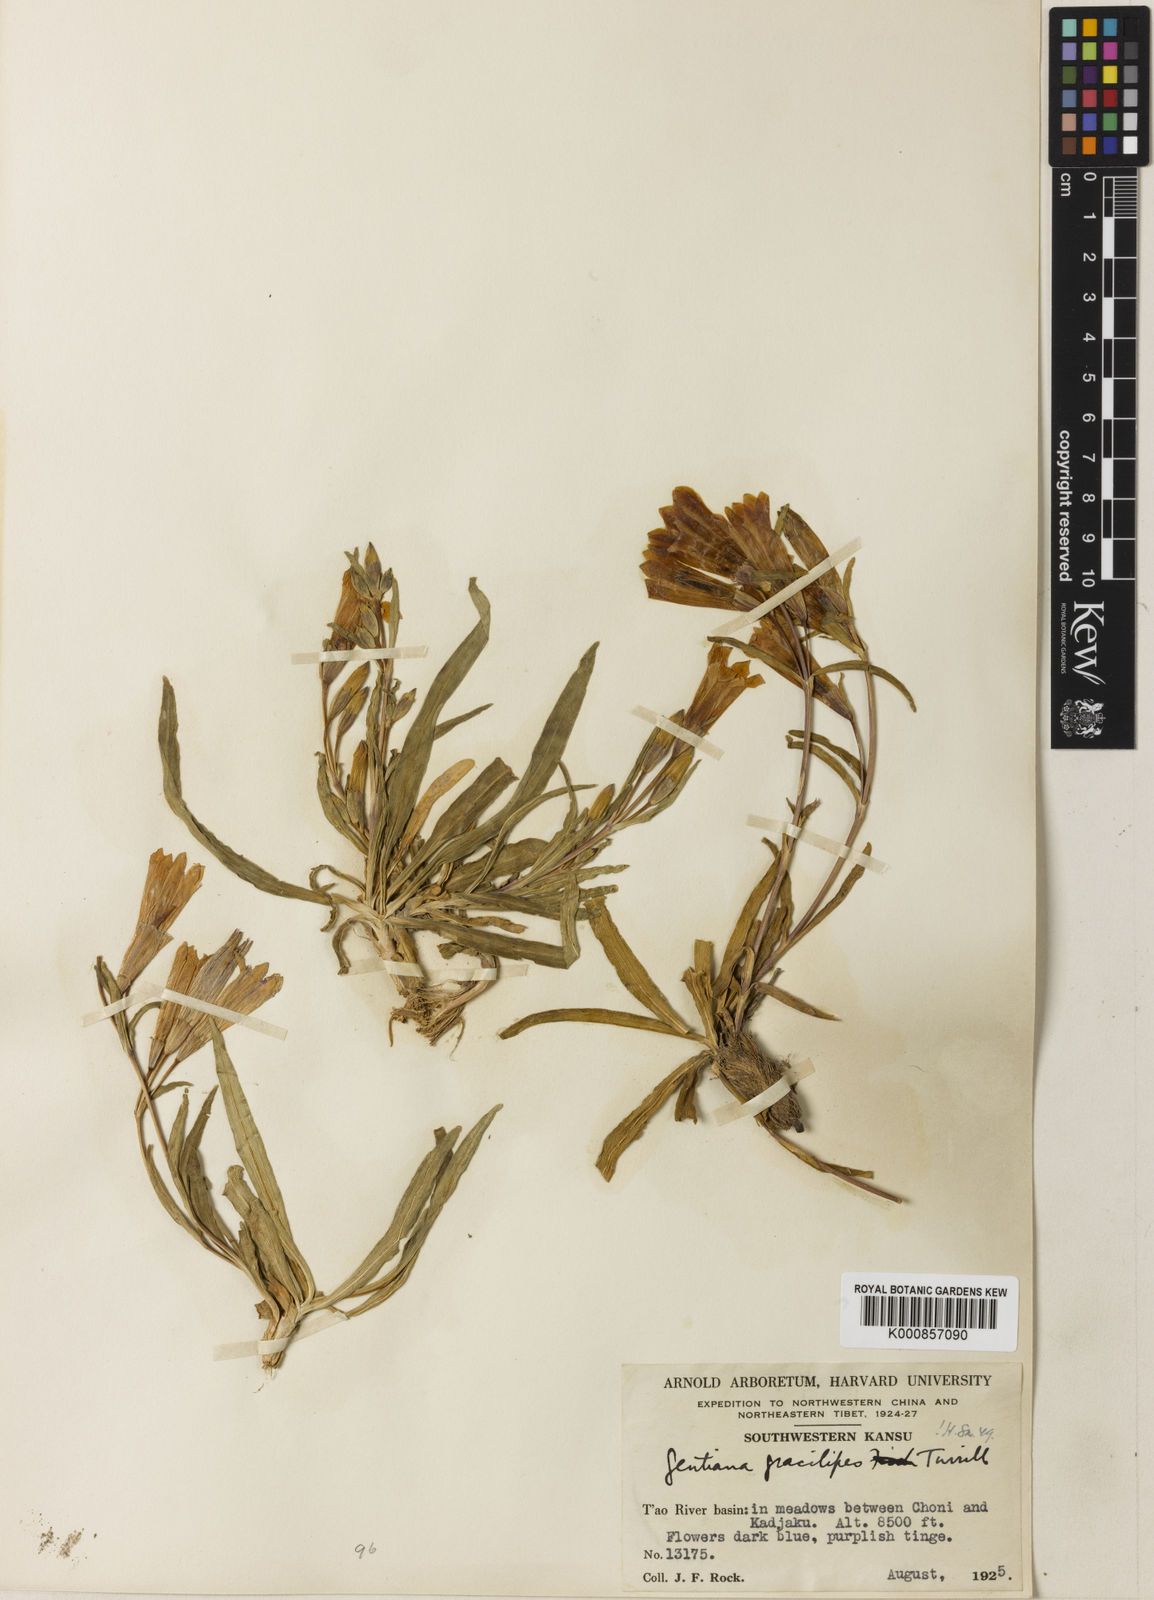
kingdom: Plantae
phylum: Tracheophyta
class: Magnoliopsida
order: Gentianales
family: Gentianaceae
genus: Gentiana
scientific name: Gentiana dahurica
